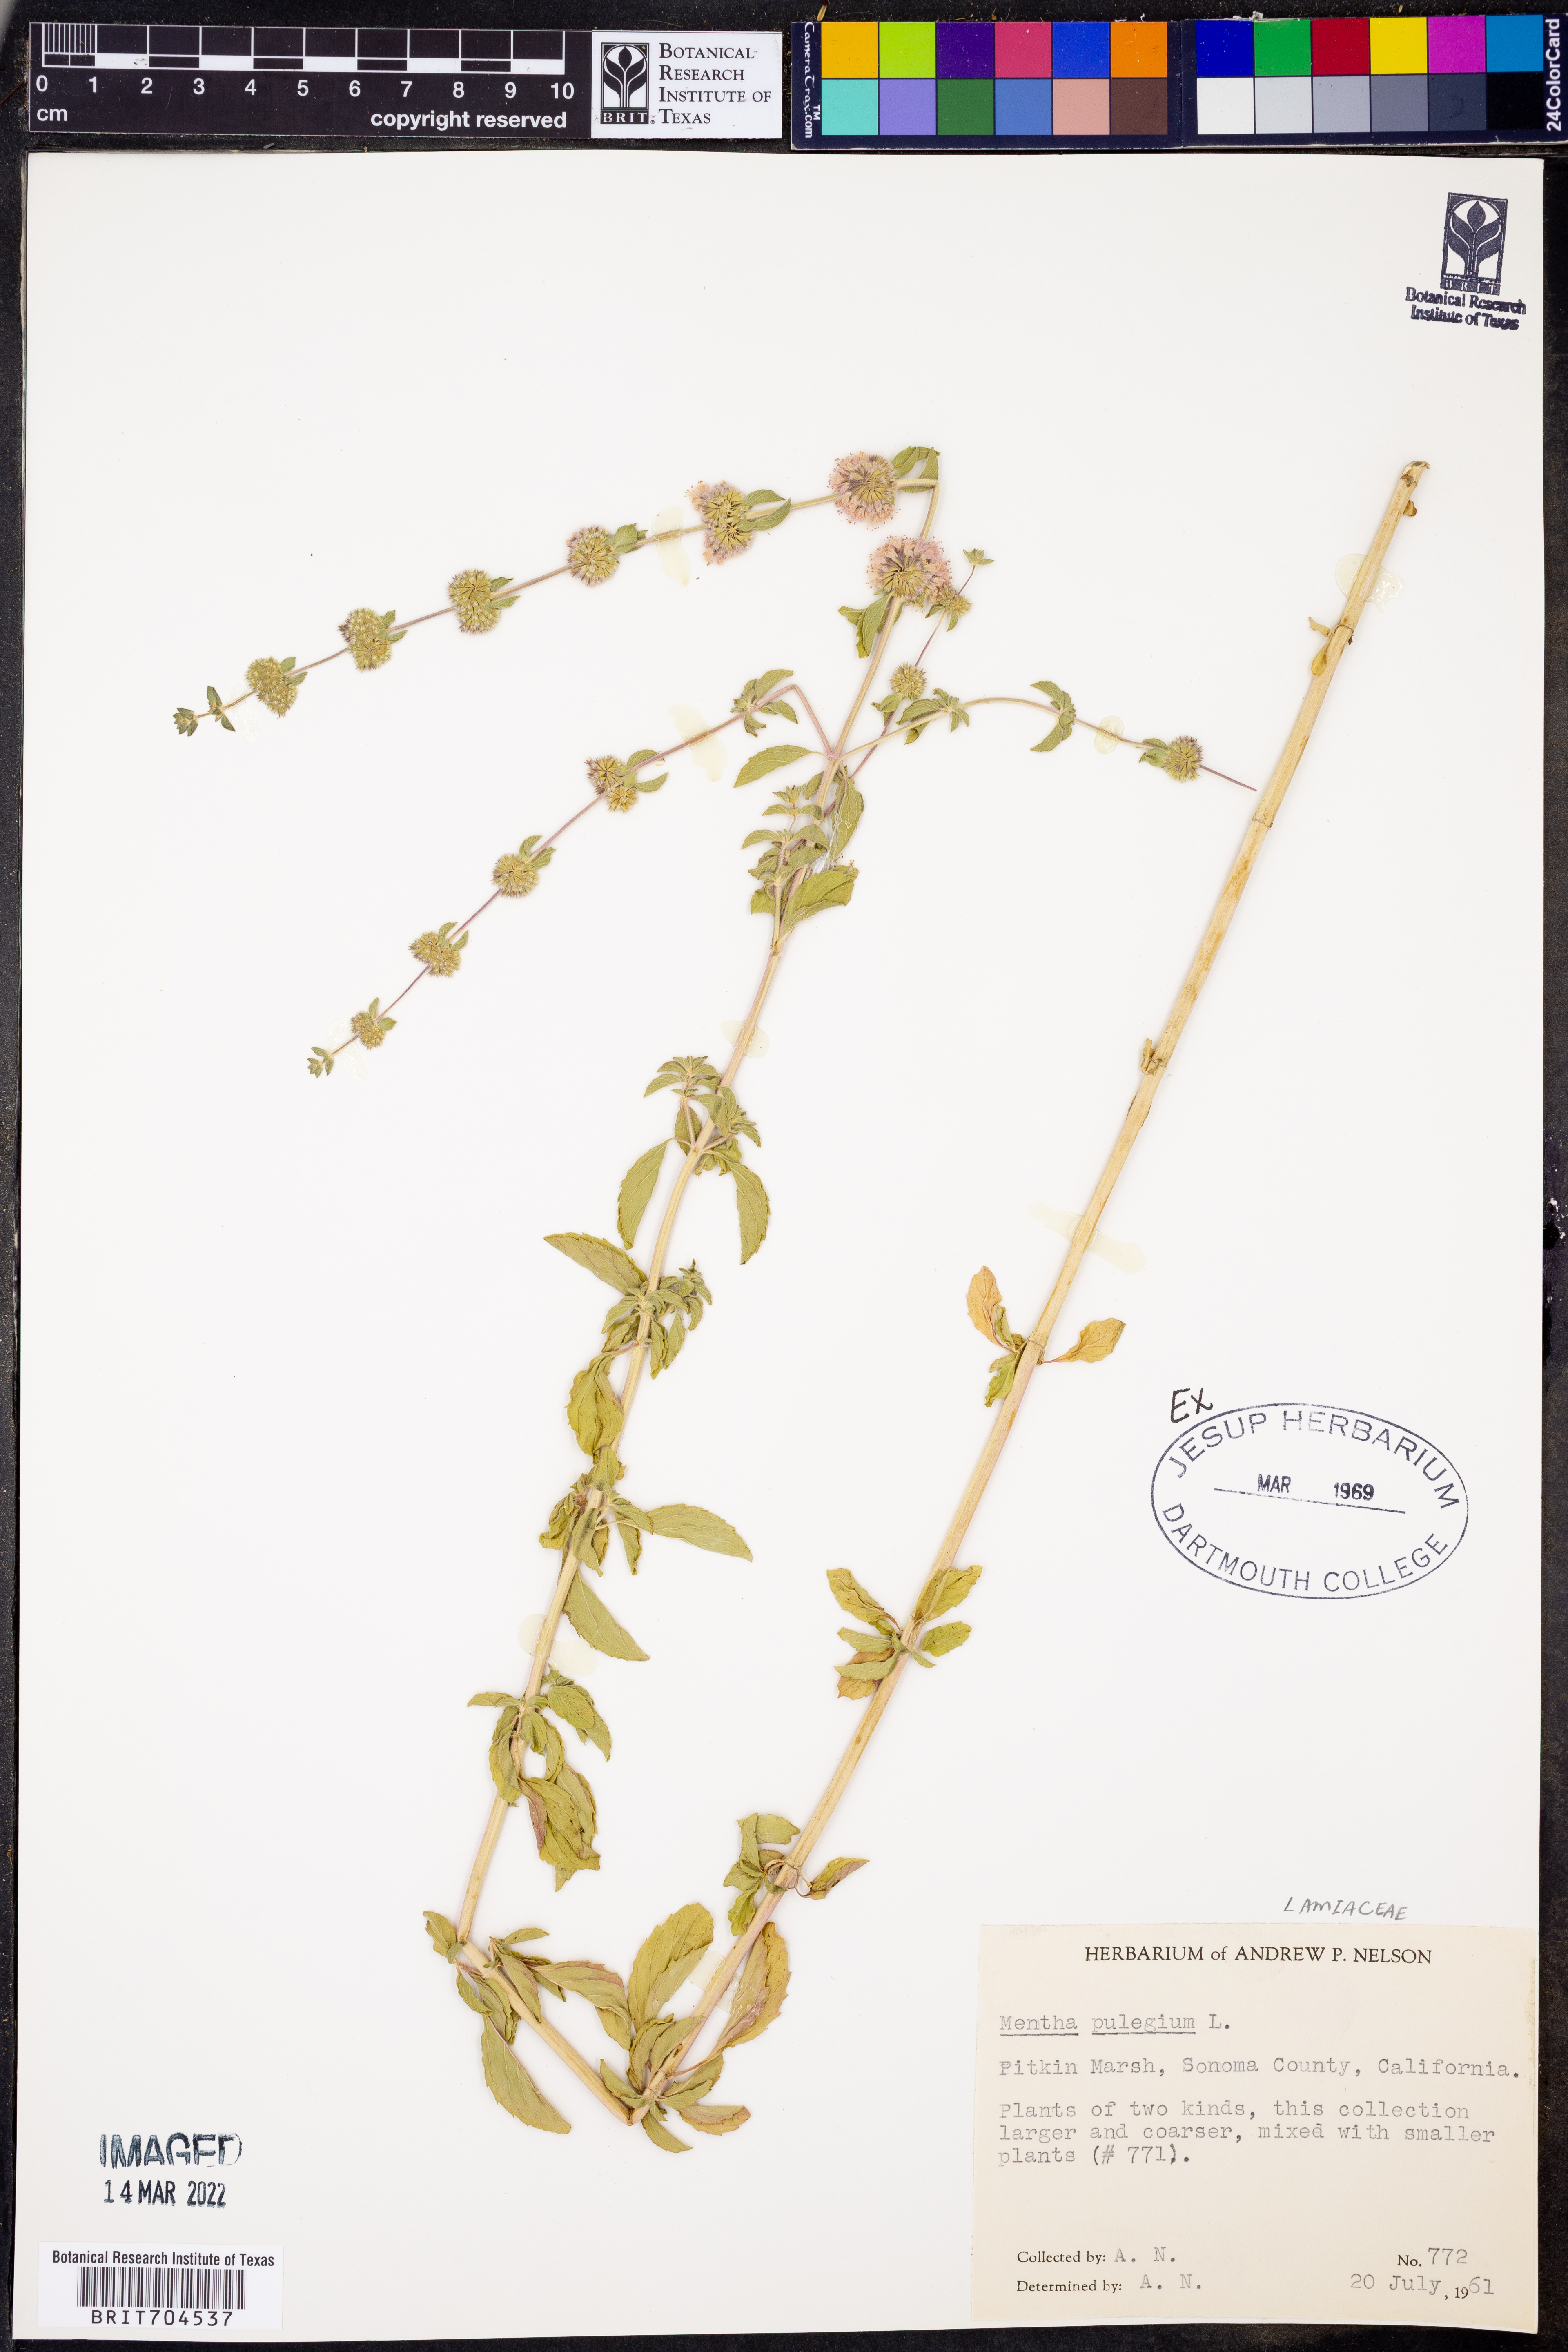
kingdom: Plantae
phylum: Tracheophyta
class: Magnoliopsida
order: Lamiales
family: Lamiaceae
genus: Mentha
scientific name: Mentha
